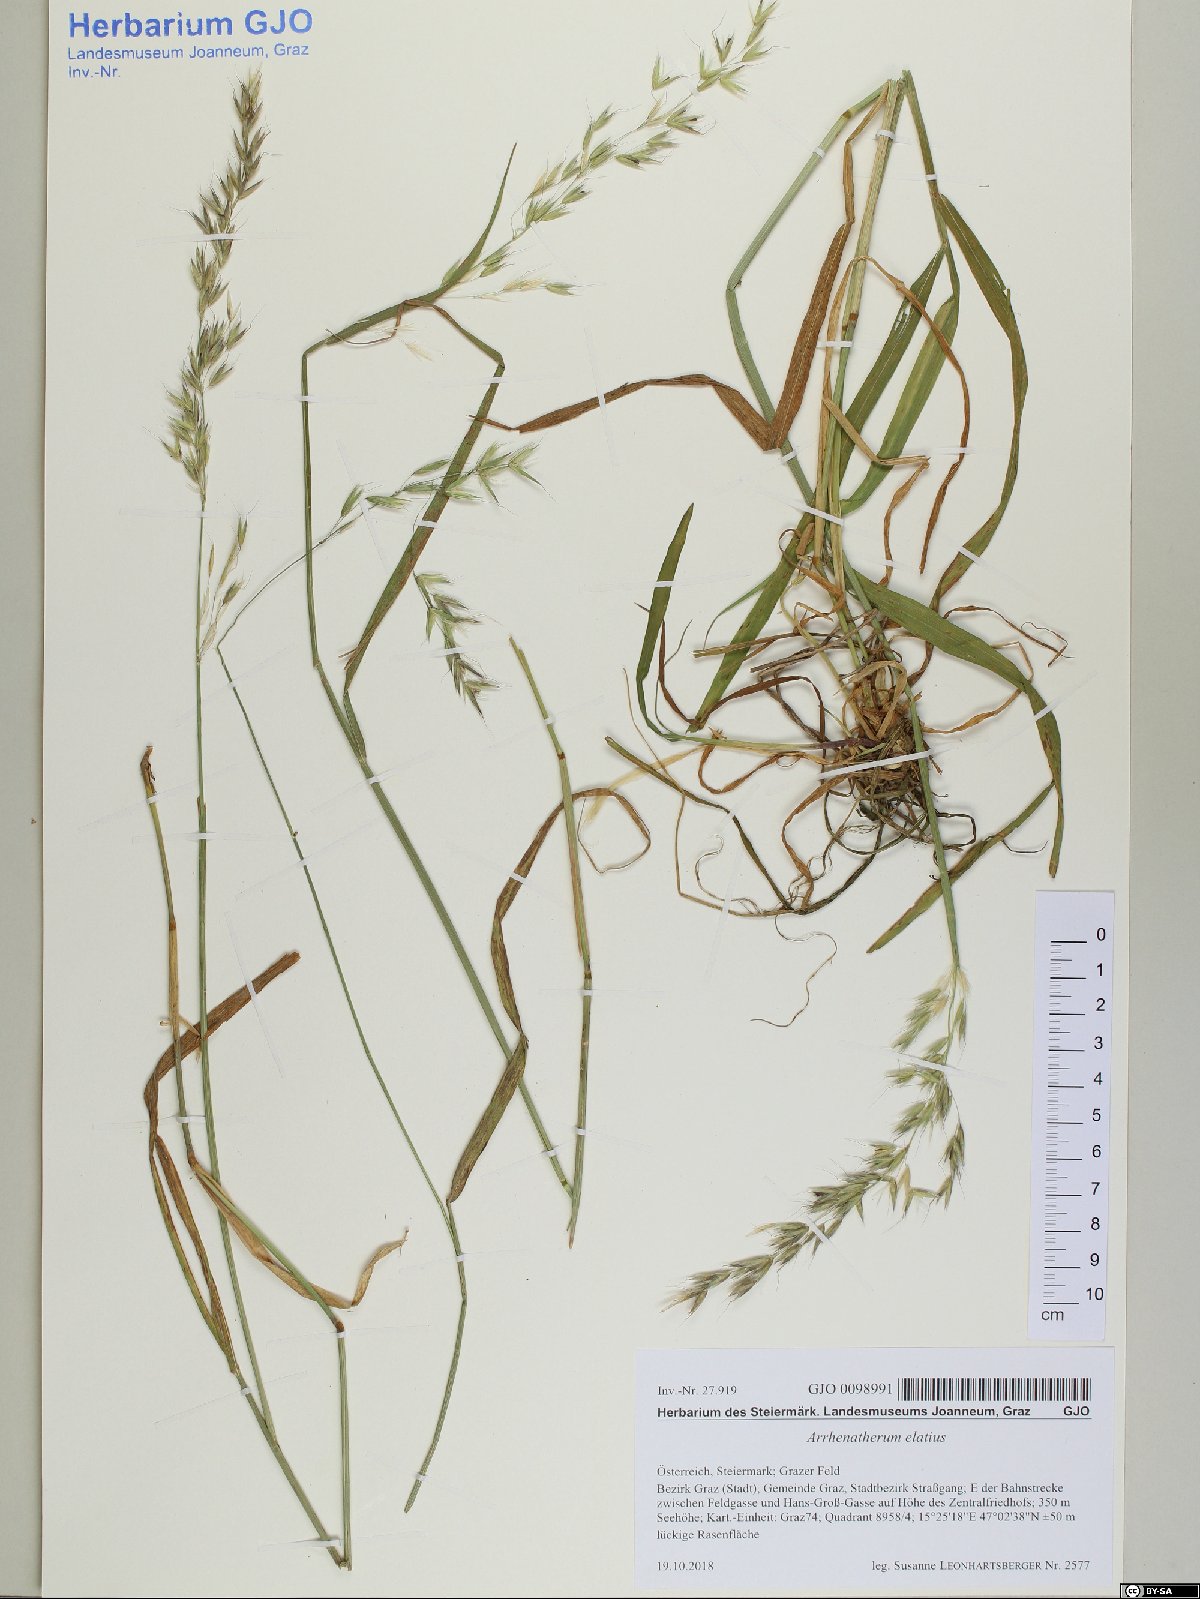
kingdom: Plantae
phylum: Tracheophyta
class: Liliopsida
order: Poales
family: Poaceae
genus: Arrhenatherum
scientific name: Arrhenatherum elatius
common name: Tall oatgrass
